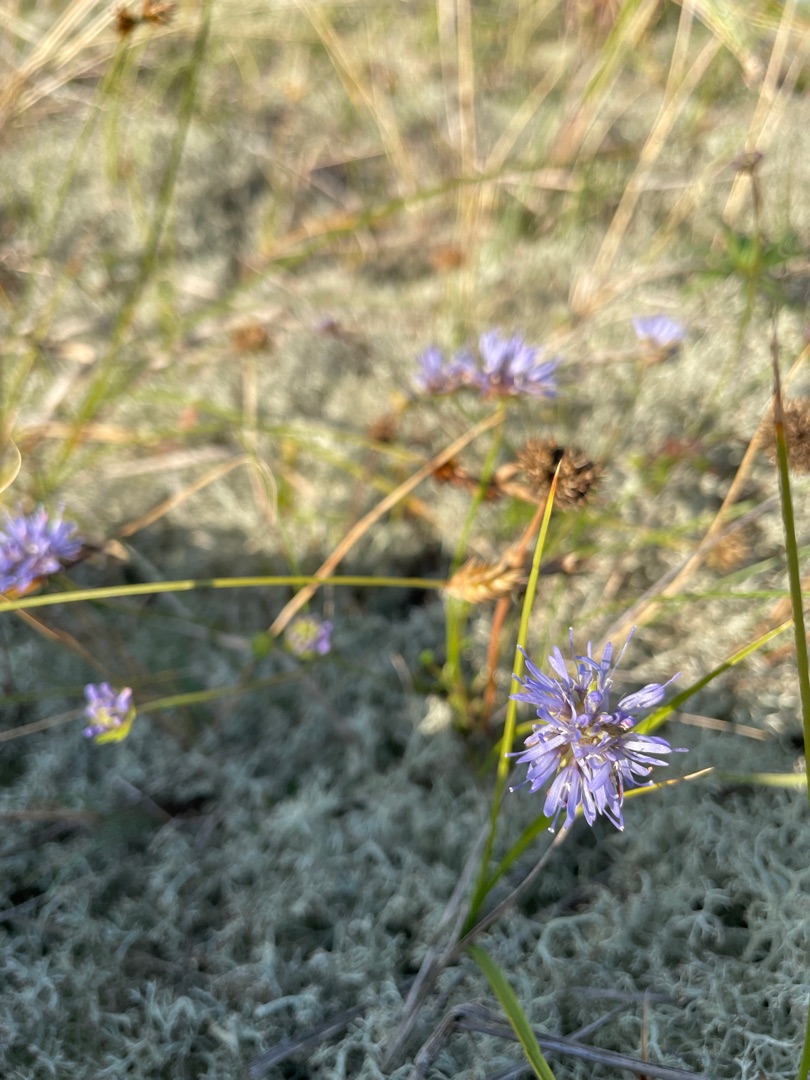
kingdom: Plantae
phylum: Tracheophyta
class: Magnoliopsida
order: Asterales
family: Campanulaceae
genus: Jasione
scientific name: Jasione montana
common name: Blåmunke
